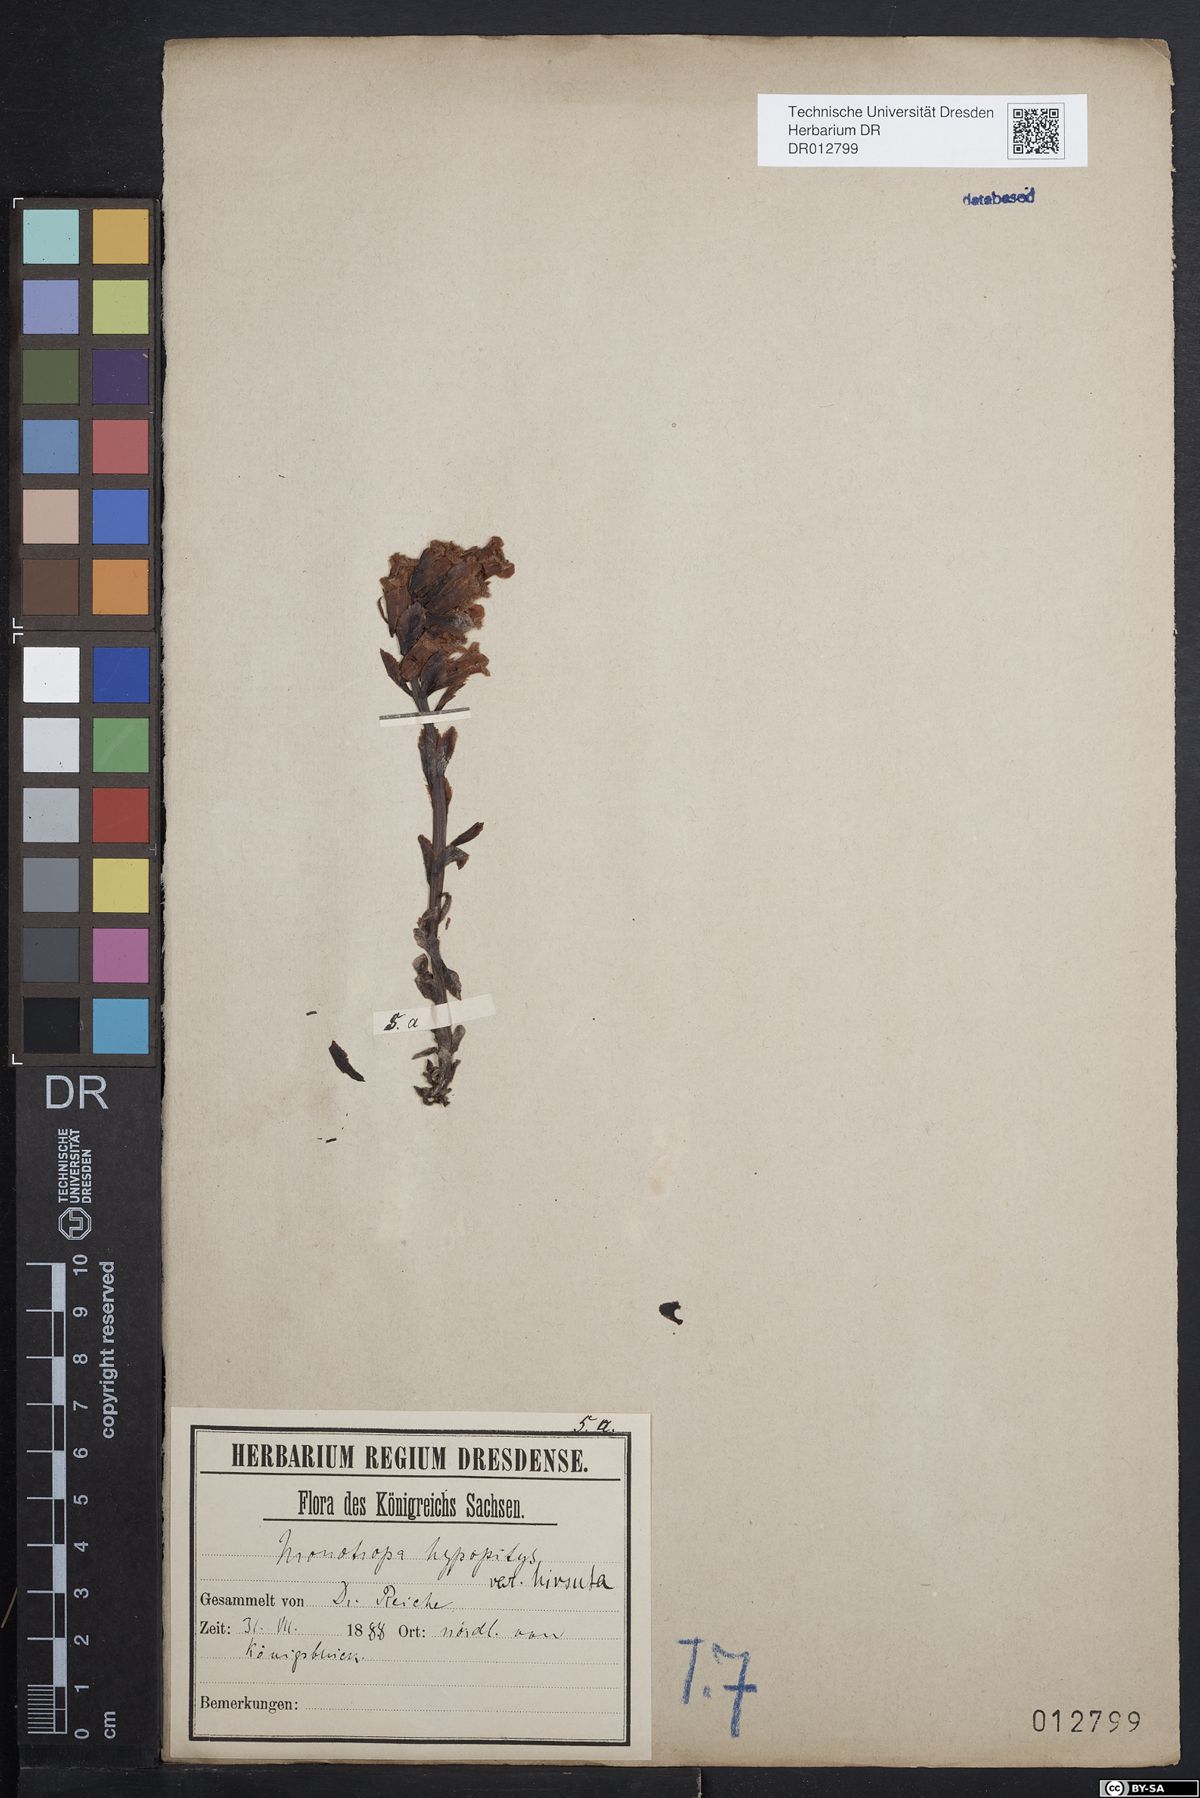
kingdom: Plantae
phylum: Tracheophyta
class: Magnoliopsida
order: Ericales
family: Ericaceae
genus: Hypopitys
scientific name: Hypopitys monotropa
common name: Yellow bird's-nest
